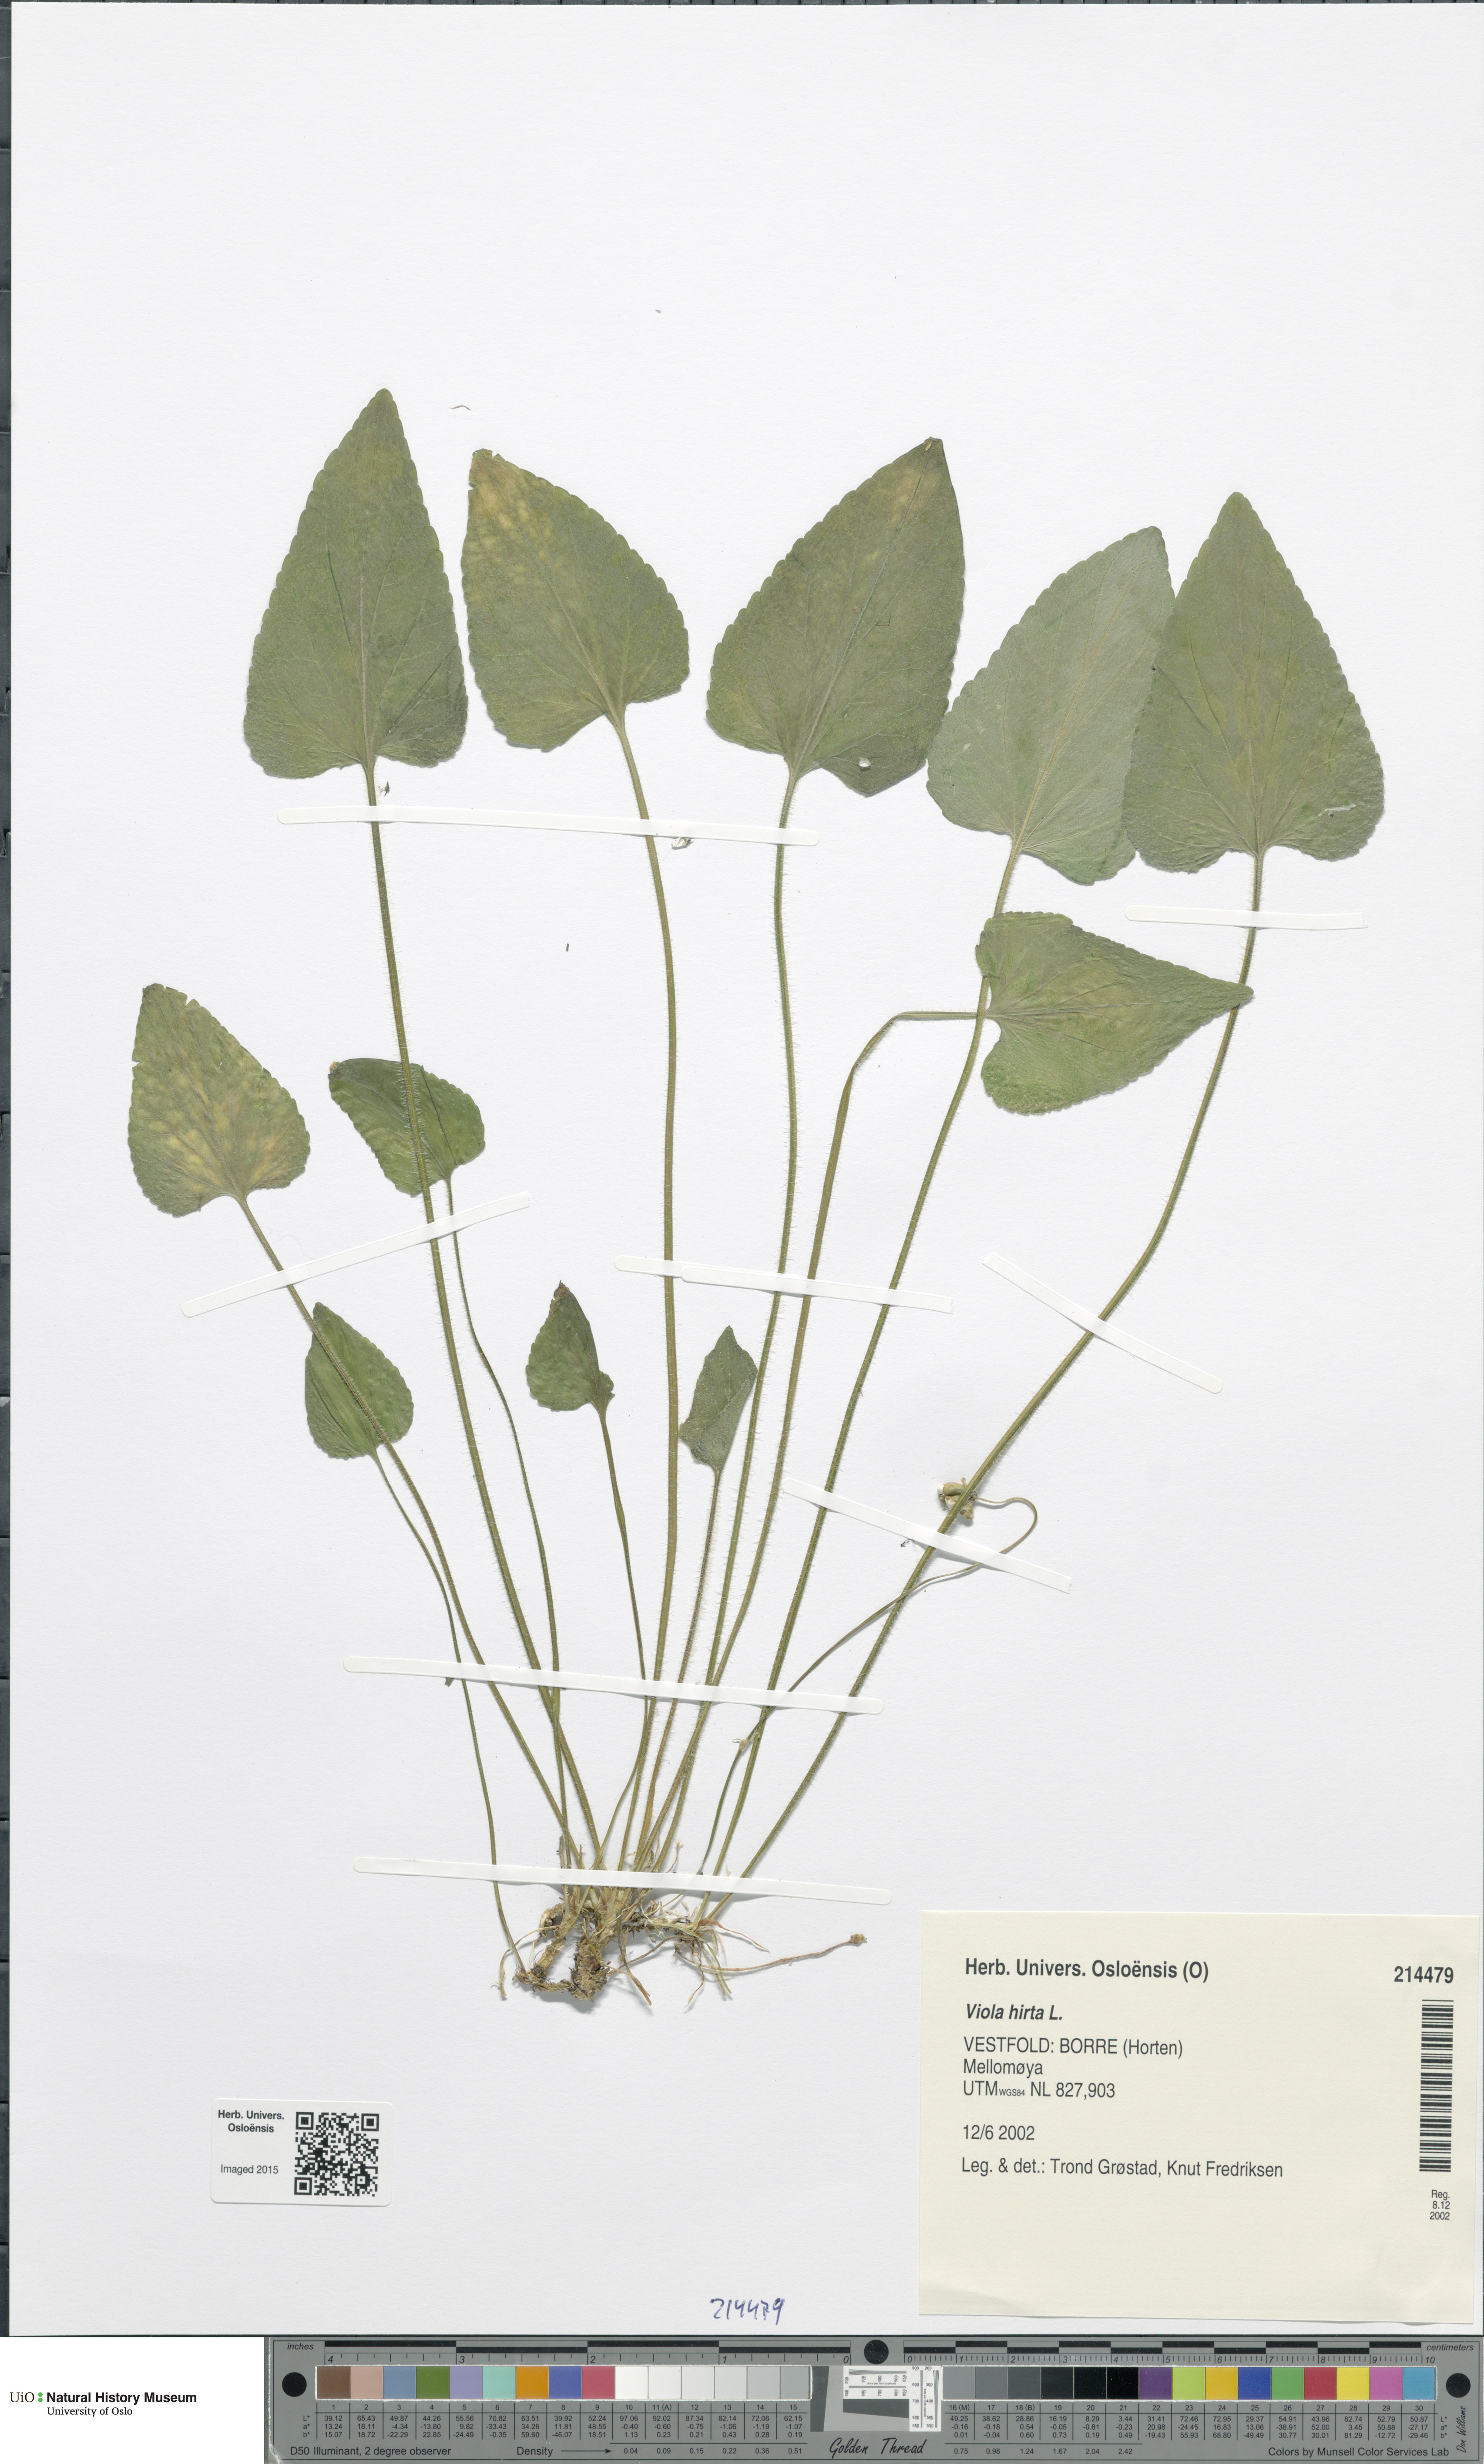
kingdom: Plantae
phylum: Tracheophyta
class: Magnoliopsida
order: Malpighiales
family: Violaceae
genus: Viola
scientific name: Viola hirta
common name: Hairy violet
